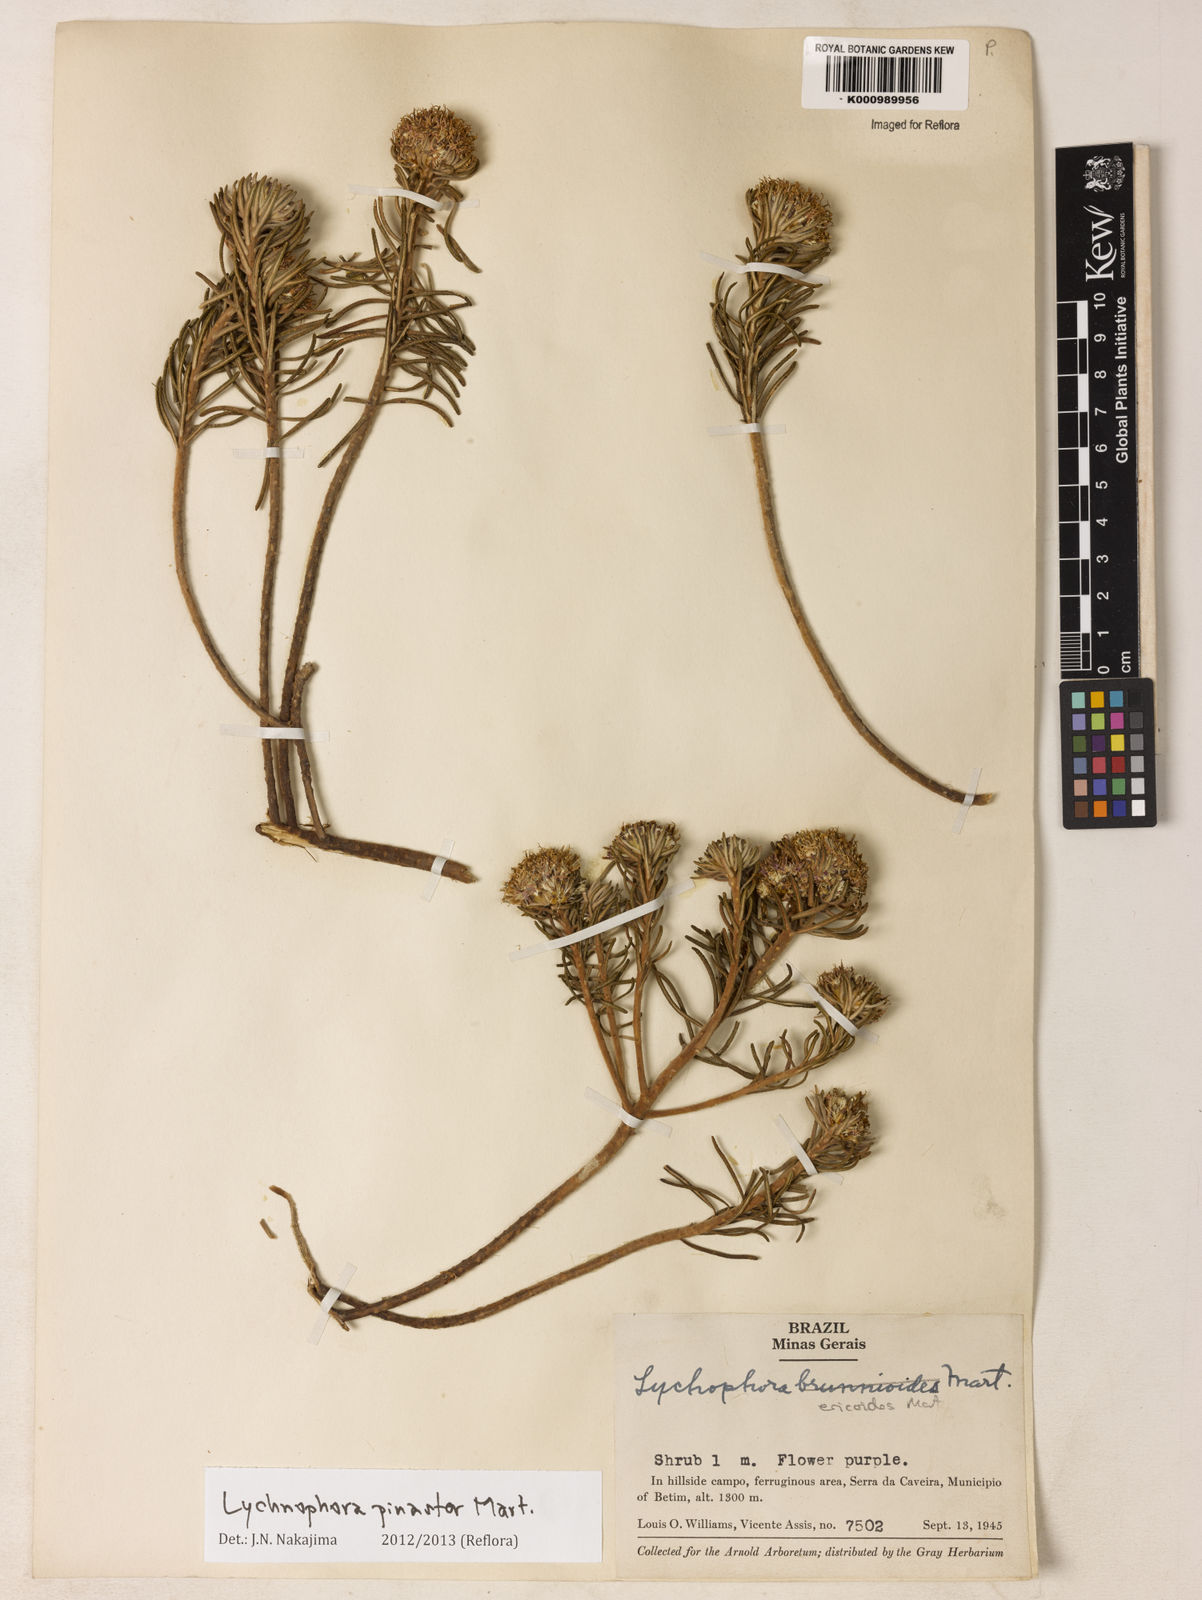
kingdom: Plantae
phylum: Tracheophyta
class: Magnoliopsida
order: Asterales
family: Asteraceae
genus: Lychnophora
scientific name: Lychnophora pinaster
